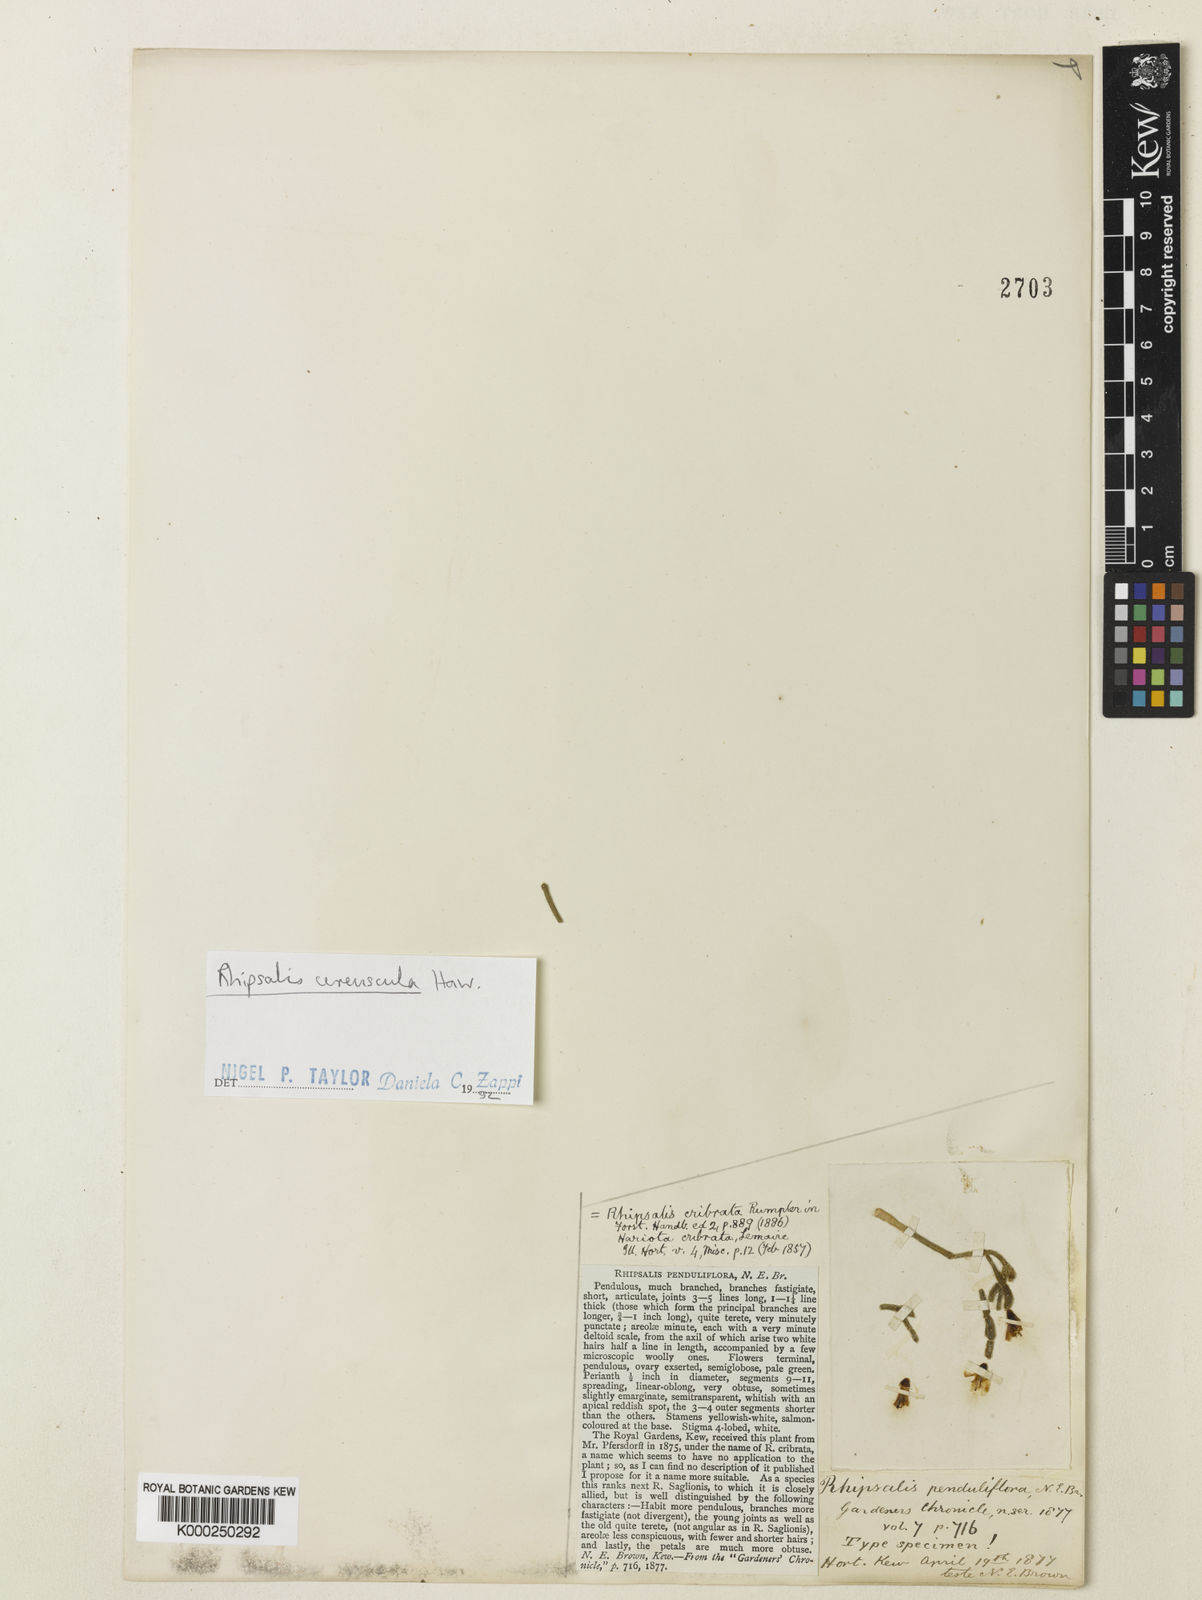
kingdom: Plantae
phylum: Tracheophyta
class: Magnoliopsida
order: Caryophyllales
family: Cactaceae
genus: Rhipsalis
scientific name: Rhipsalis
